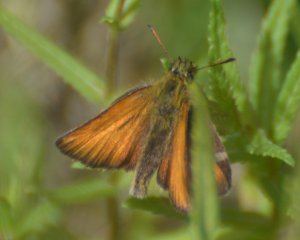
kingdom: Animalia
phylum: Arthropoda
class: Insecta
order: Lepidoptera
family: Hesperiidae
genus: Thymelicus
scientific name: Thymelicus lineola
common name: European Skipper
